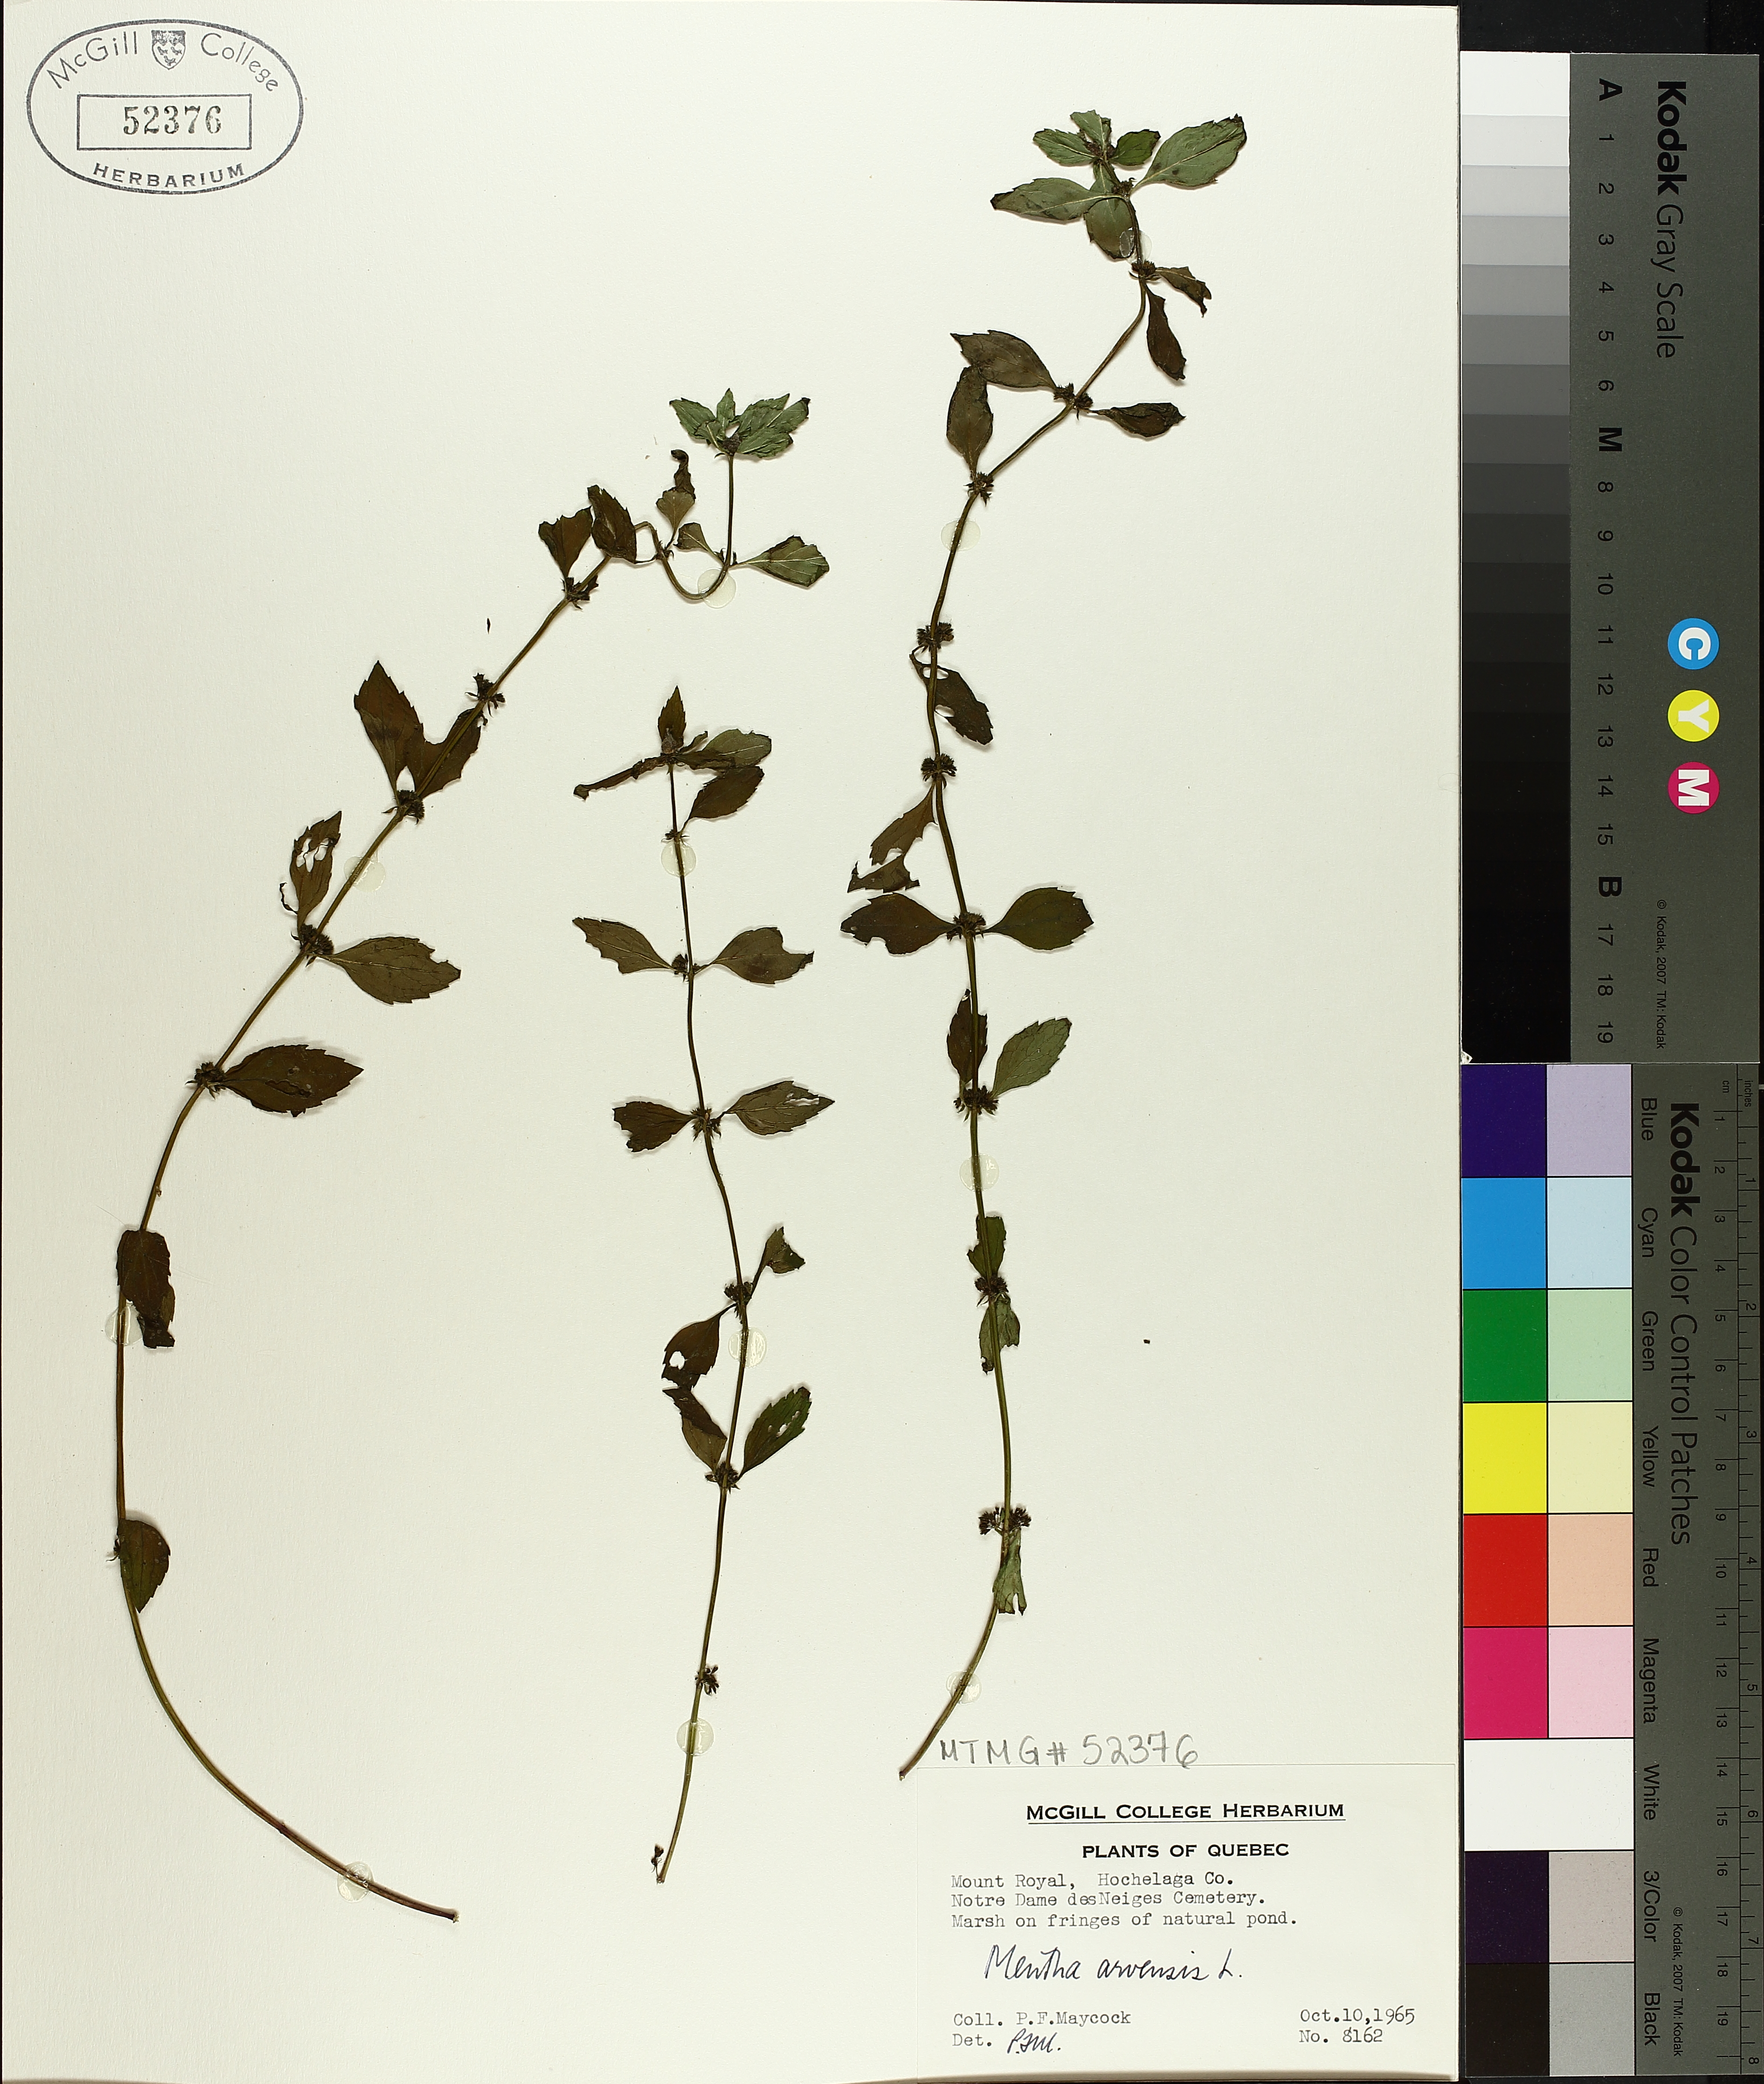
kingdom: Plantae
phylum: Tracheophyta
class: Magnoliopsida
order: Lamiales
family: Lamiaceae
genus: Mentha
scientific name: Mentha arvensis
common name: Corn mint
